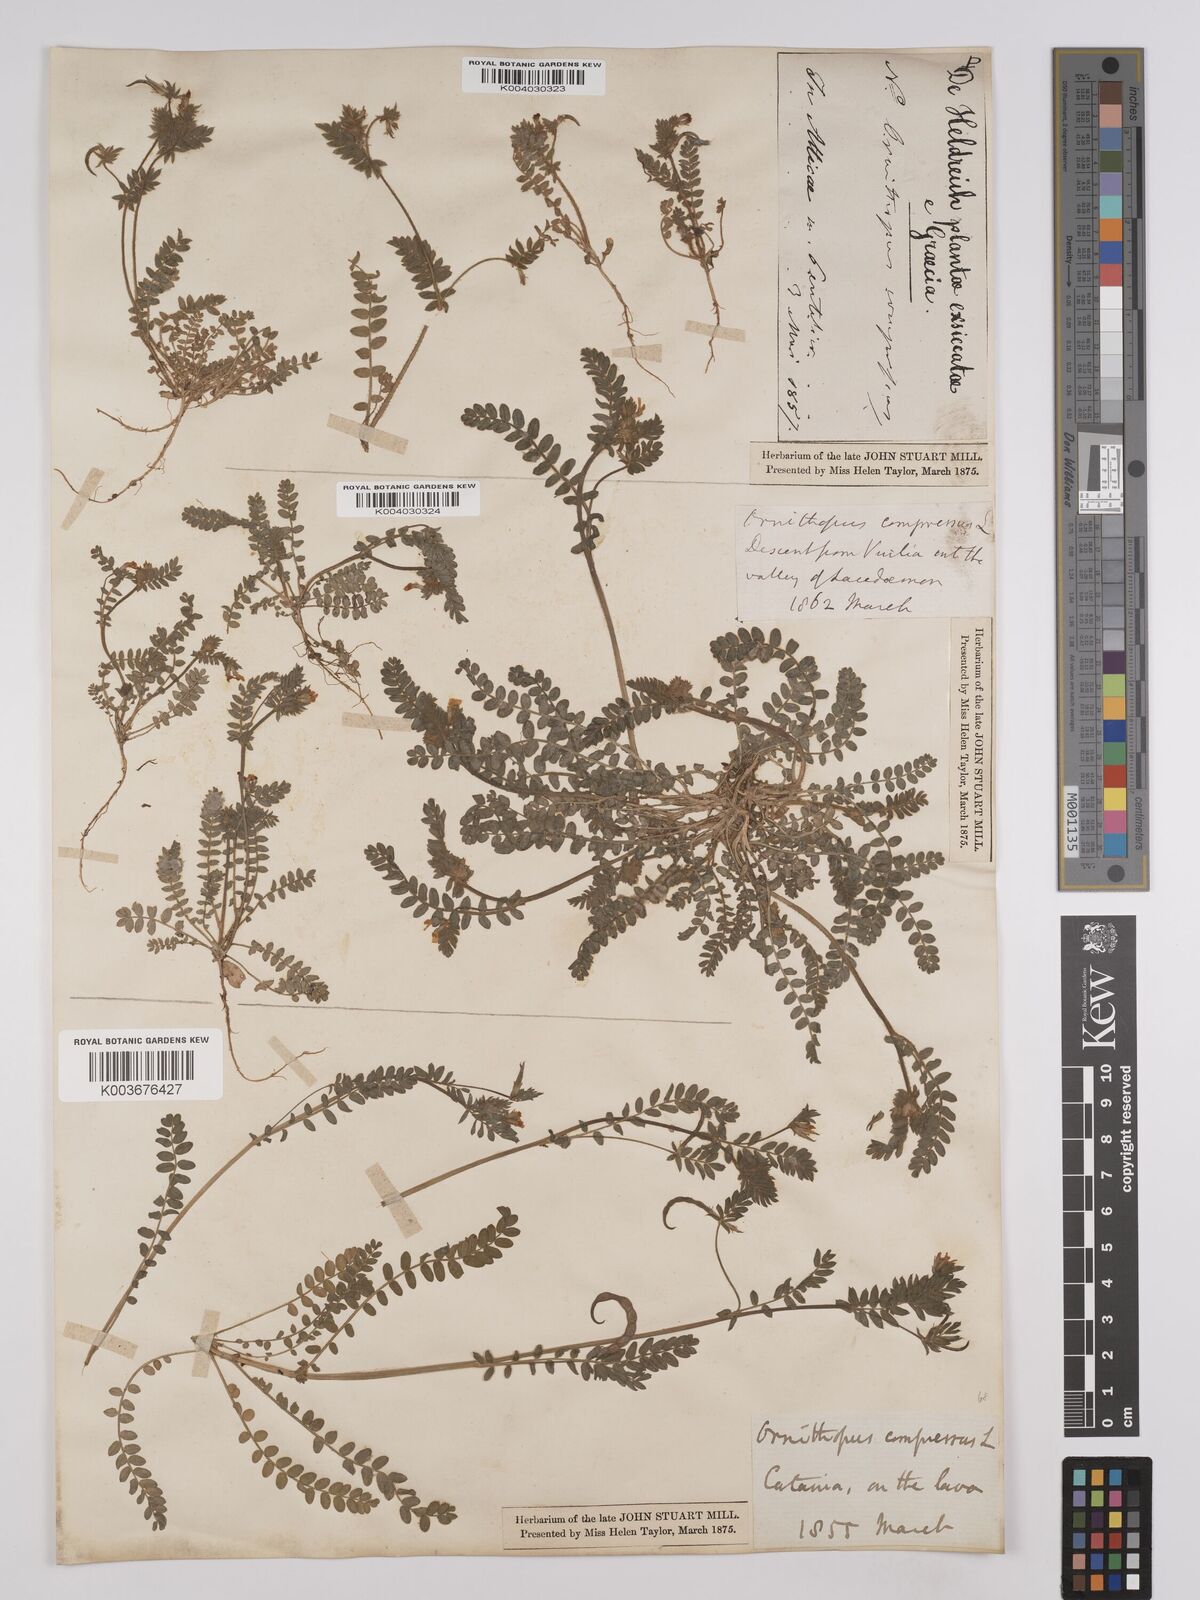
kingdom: Plantae
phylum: Tracheophyta
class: Magnoliopsida
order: Fabales
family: Fabaceae
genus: Ornithopus
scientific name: Ornithopus compressus
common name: Yellow serradella
